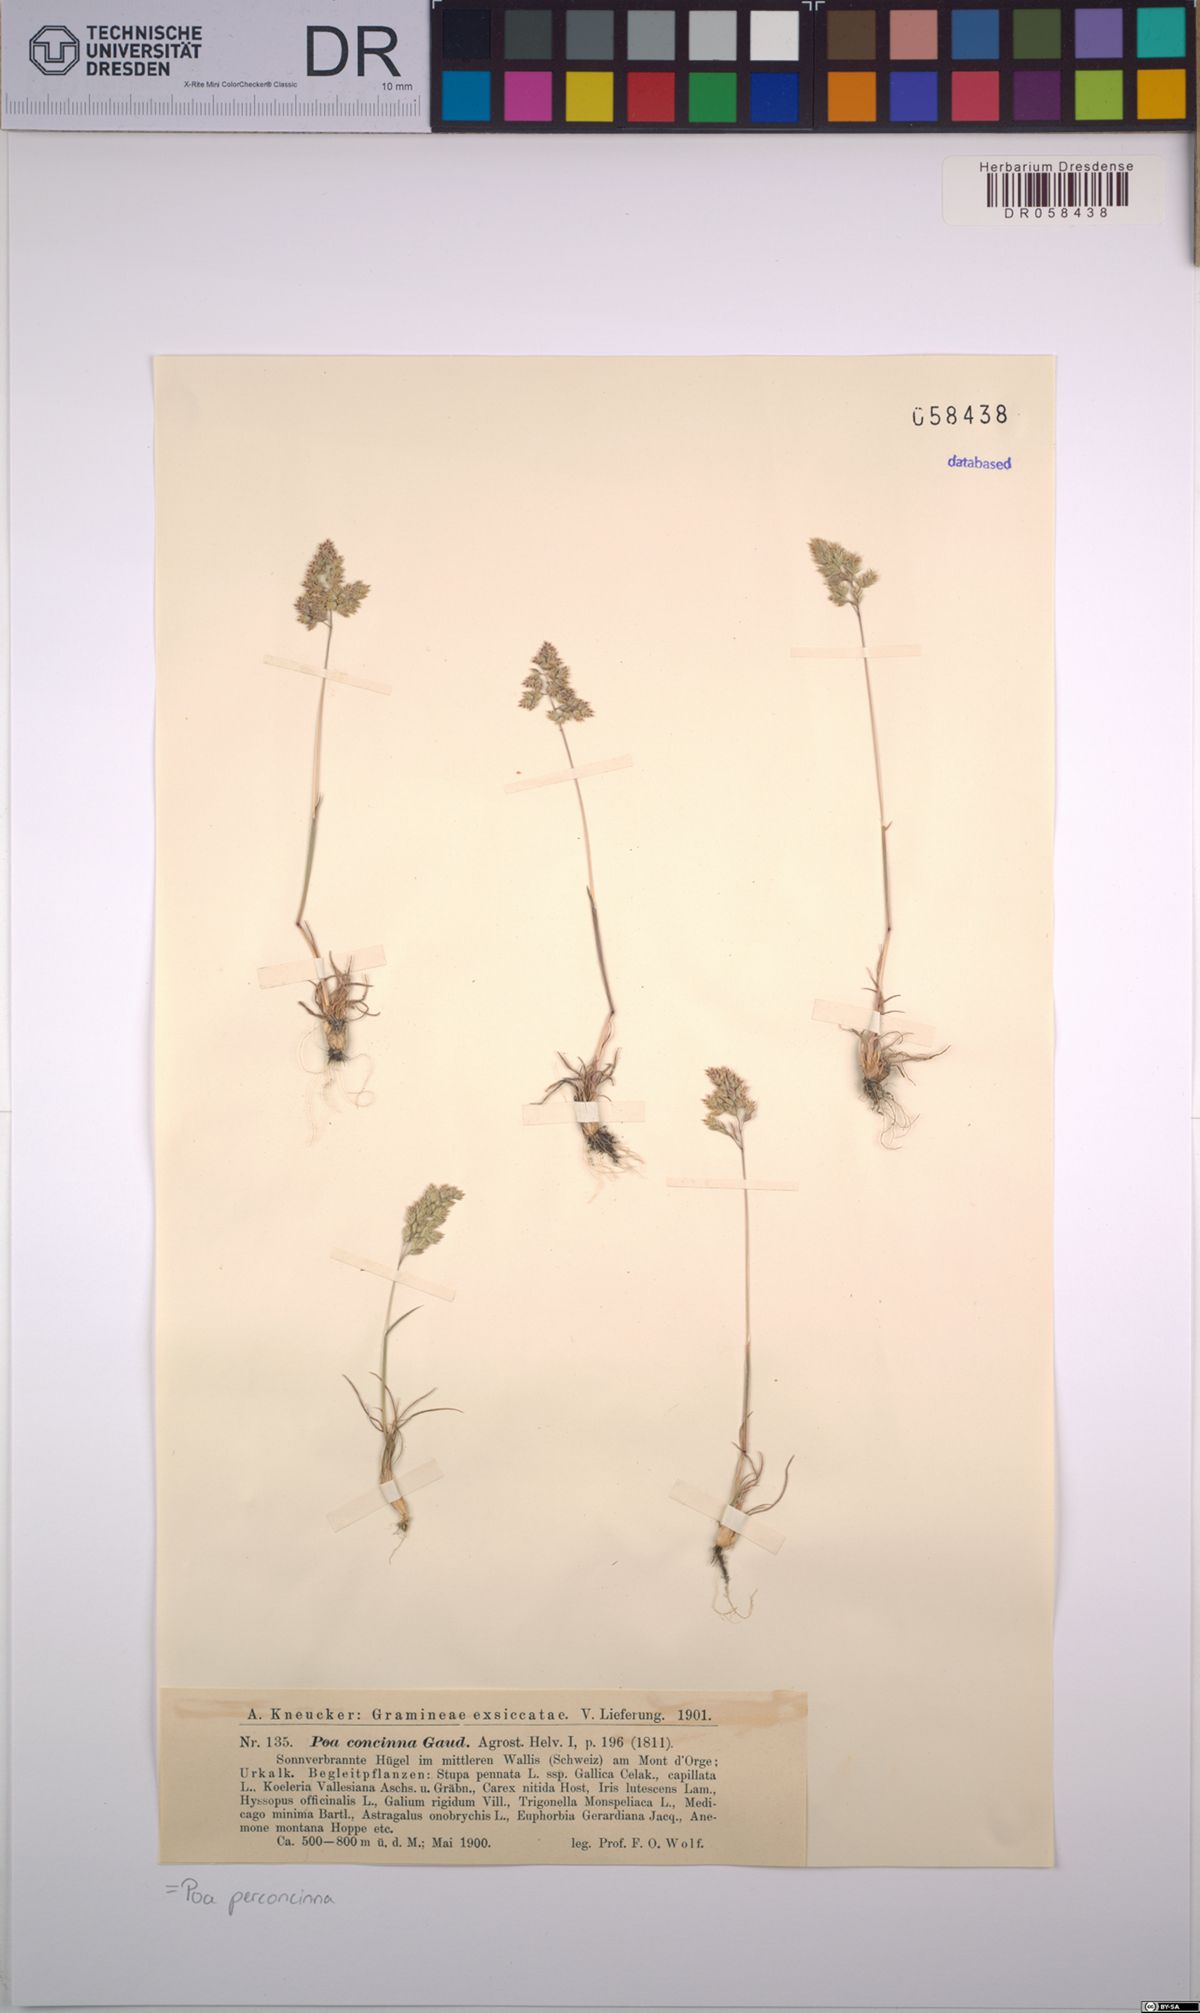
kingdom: Plantae
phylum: Tracheophyta
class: Liliopsida
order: Poales
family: Poaceae
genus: Poa
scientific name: Poa perconcinna
